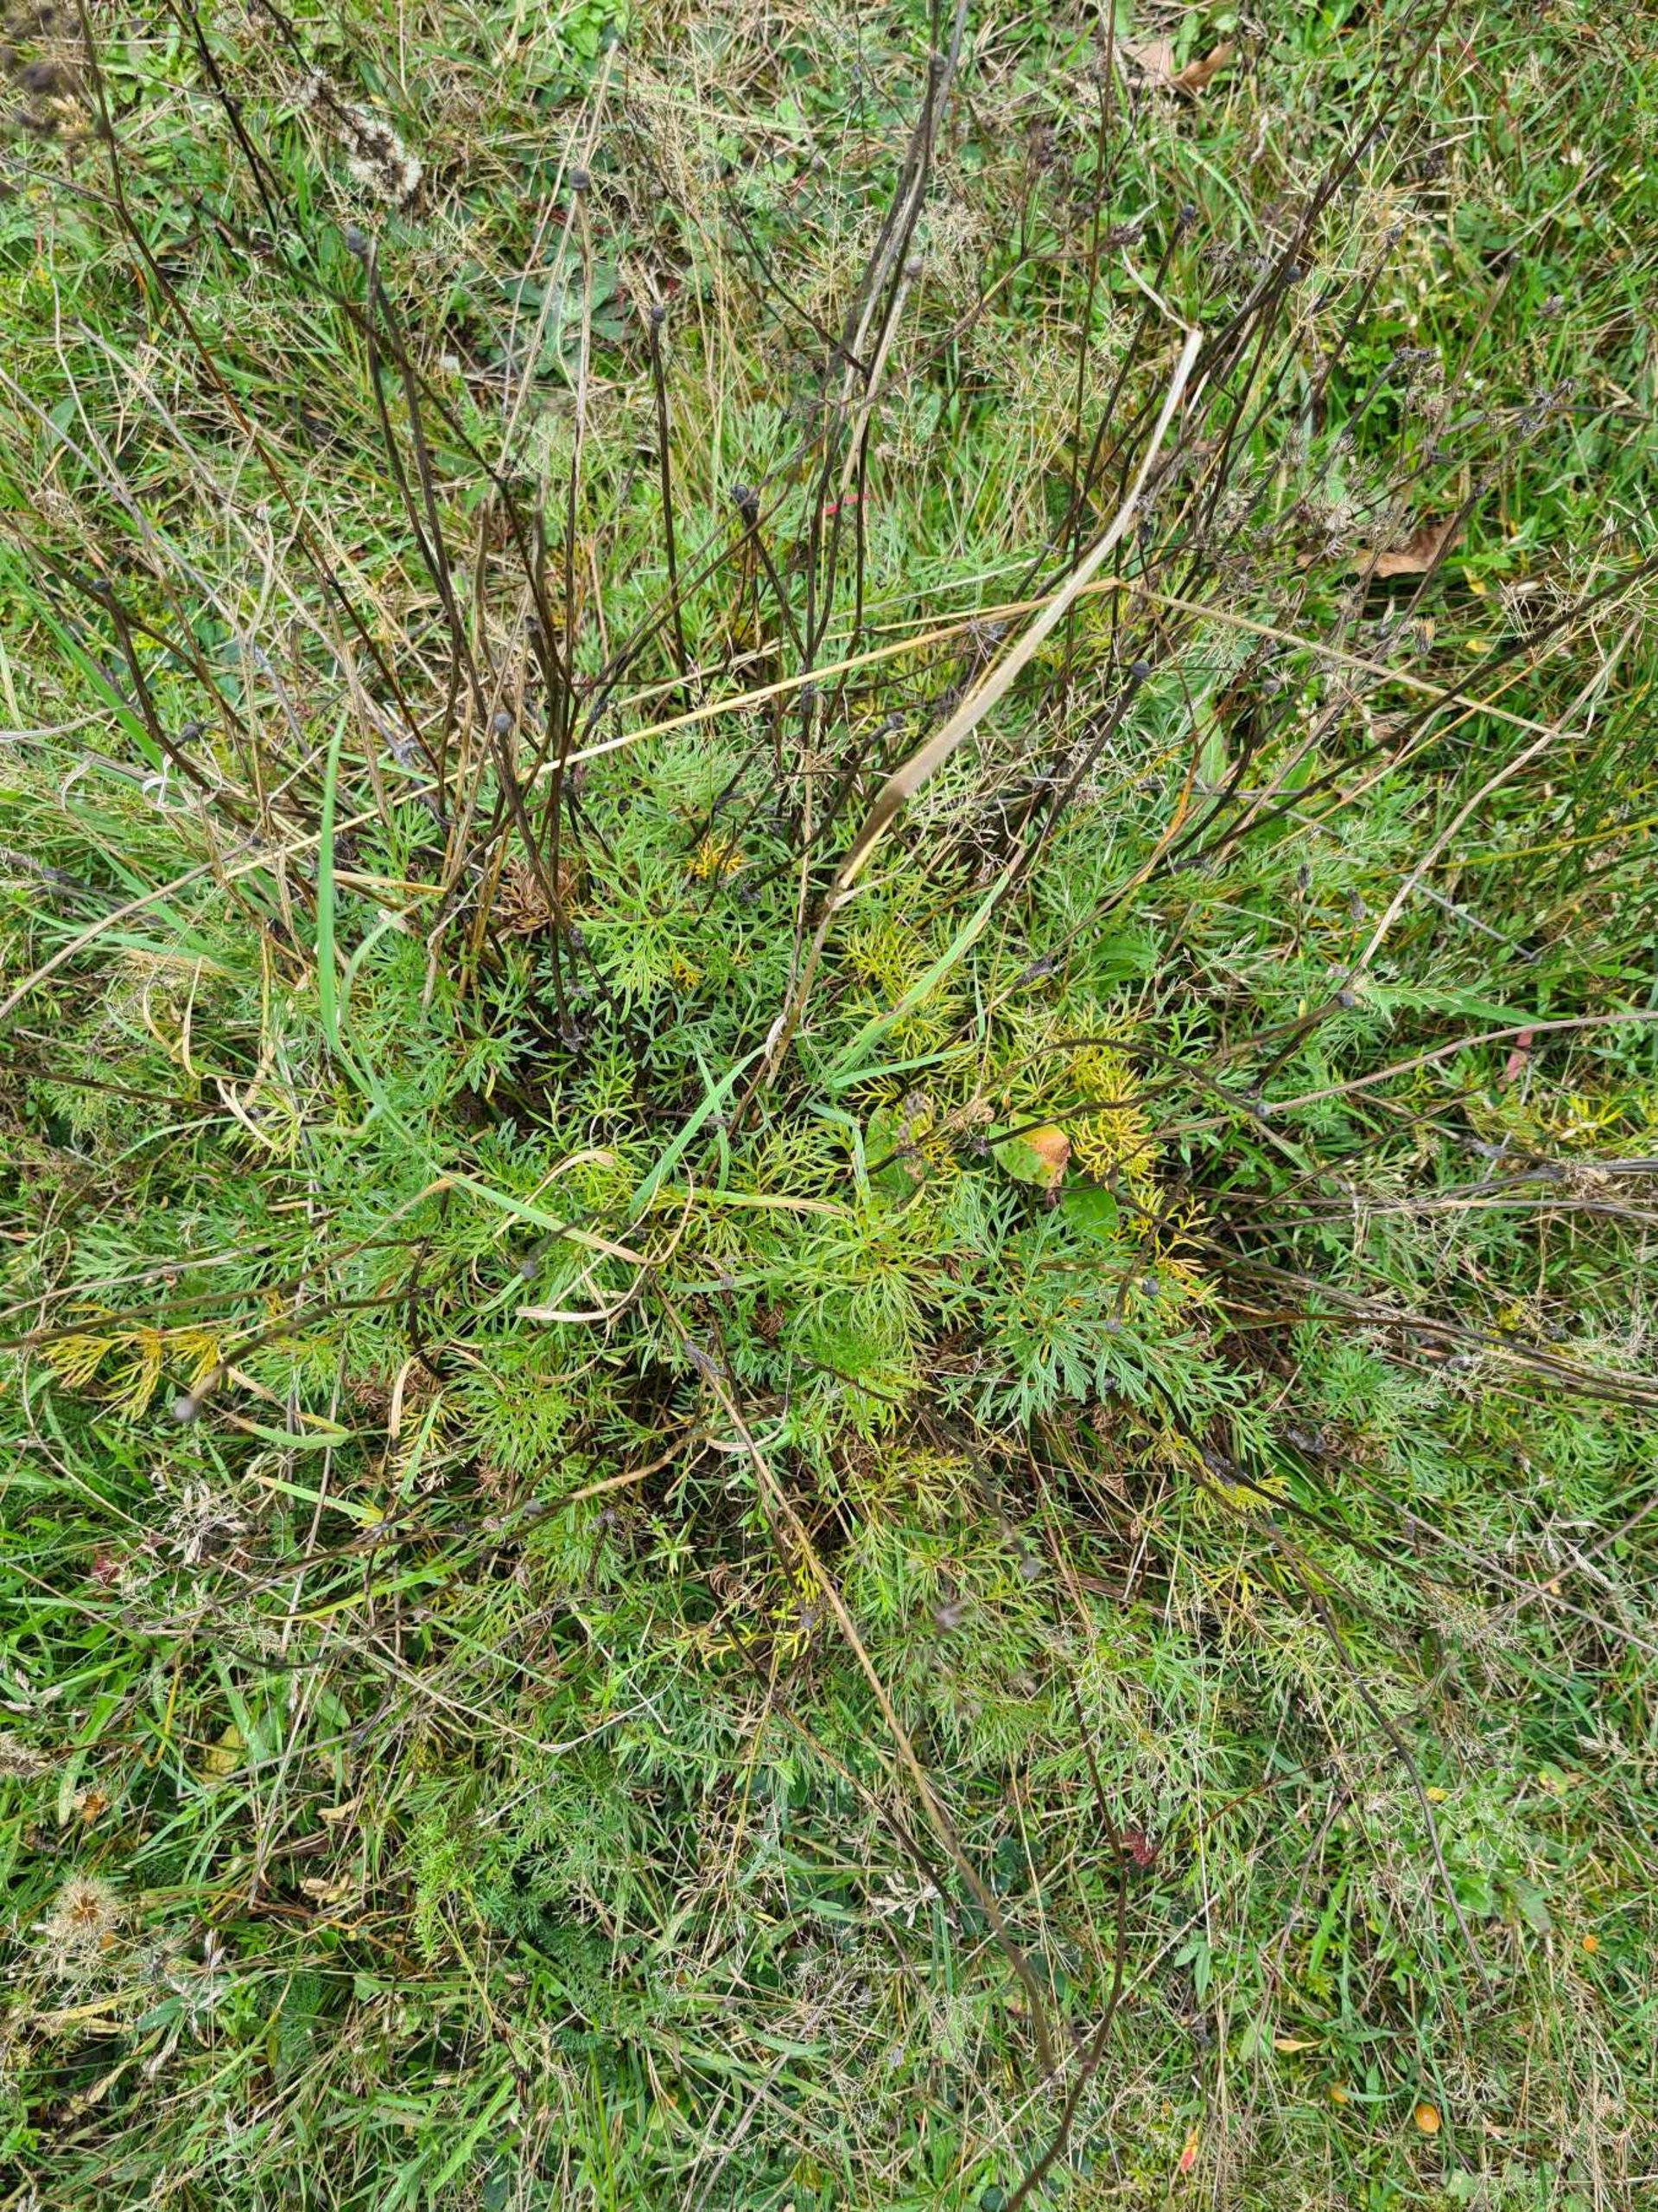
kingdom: Plantae
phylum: Tracheophyta
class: Magnoliopsida
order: Ranunculales
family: Ranunculaceae
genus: Pulsatilla
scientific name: Pulsatilla vulgaris
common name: Opret kobjælde
